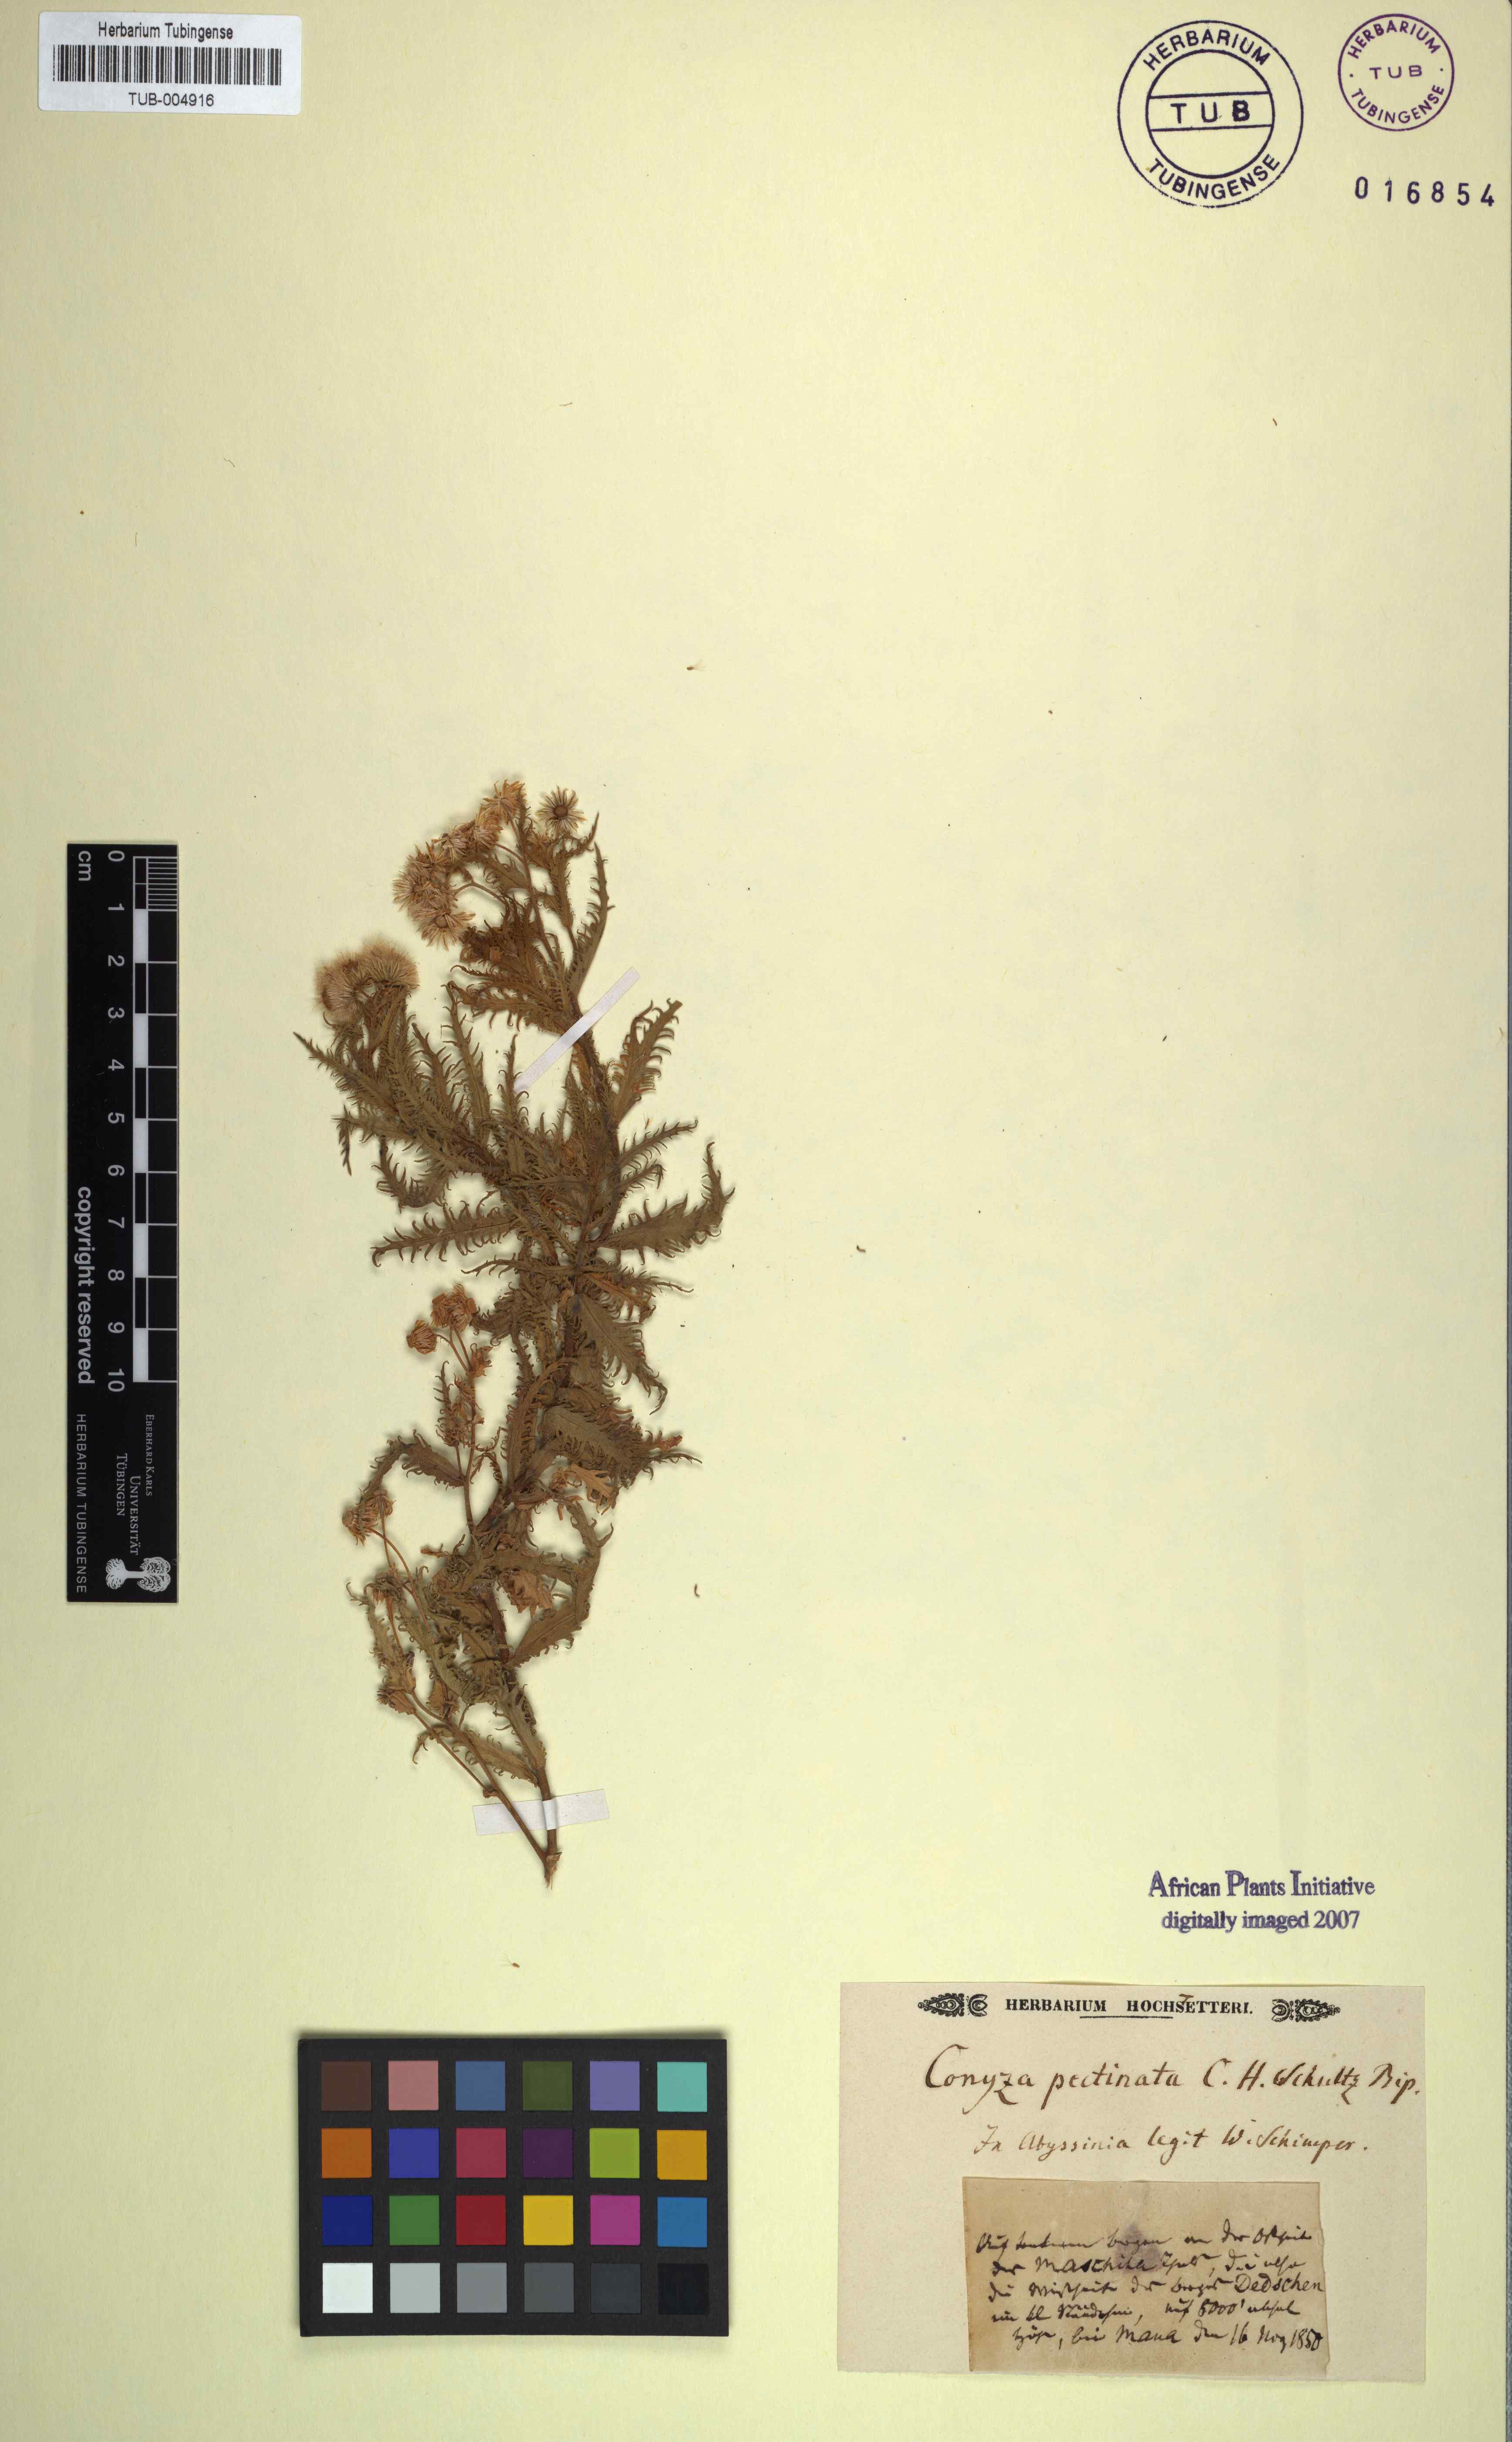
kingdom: Plantae
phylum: Tracheophyta
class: Magnoliopsida
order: Asterales
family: Asteraceae
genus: Erigeron
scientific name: Erigeron Conyza pectinata
